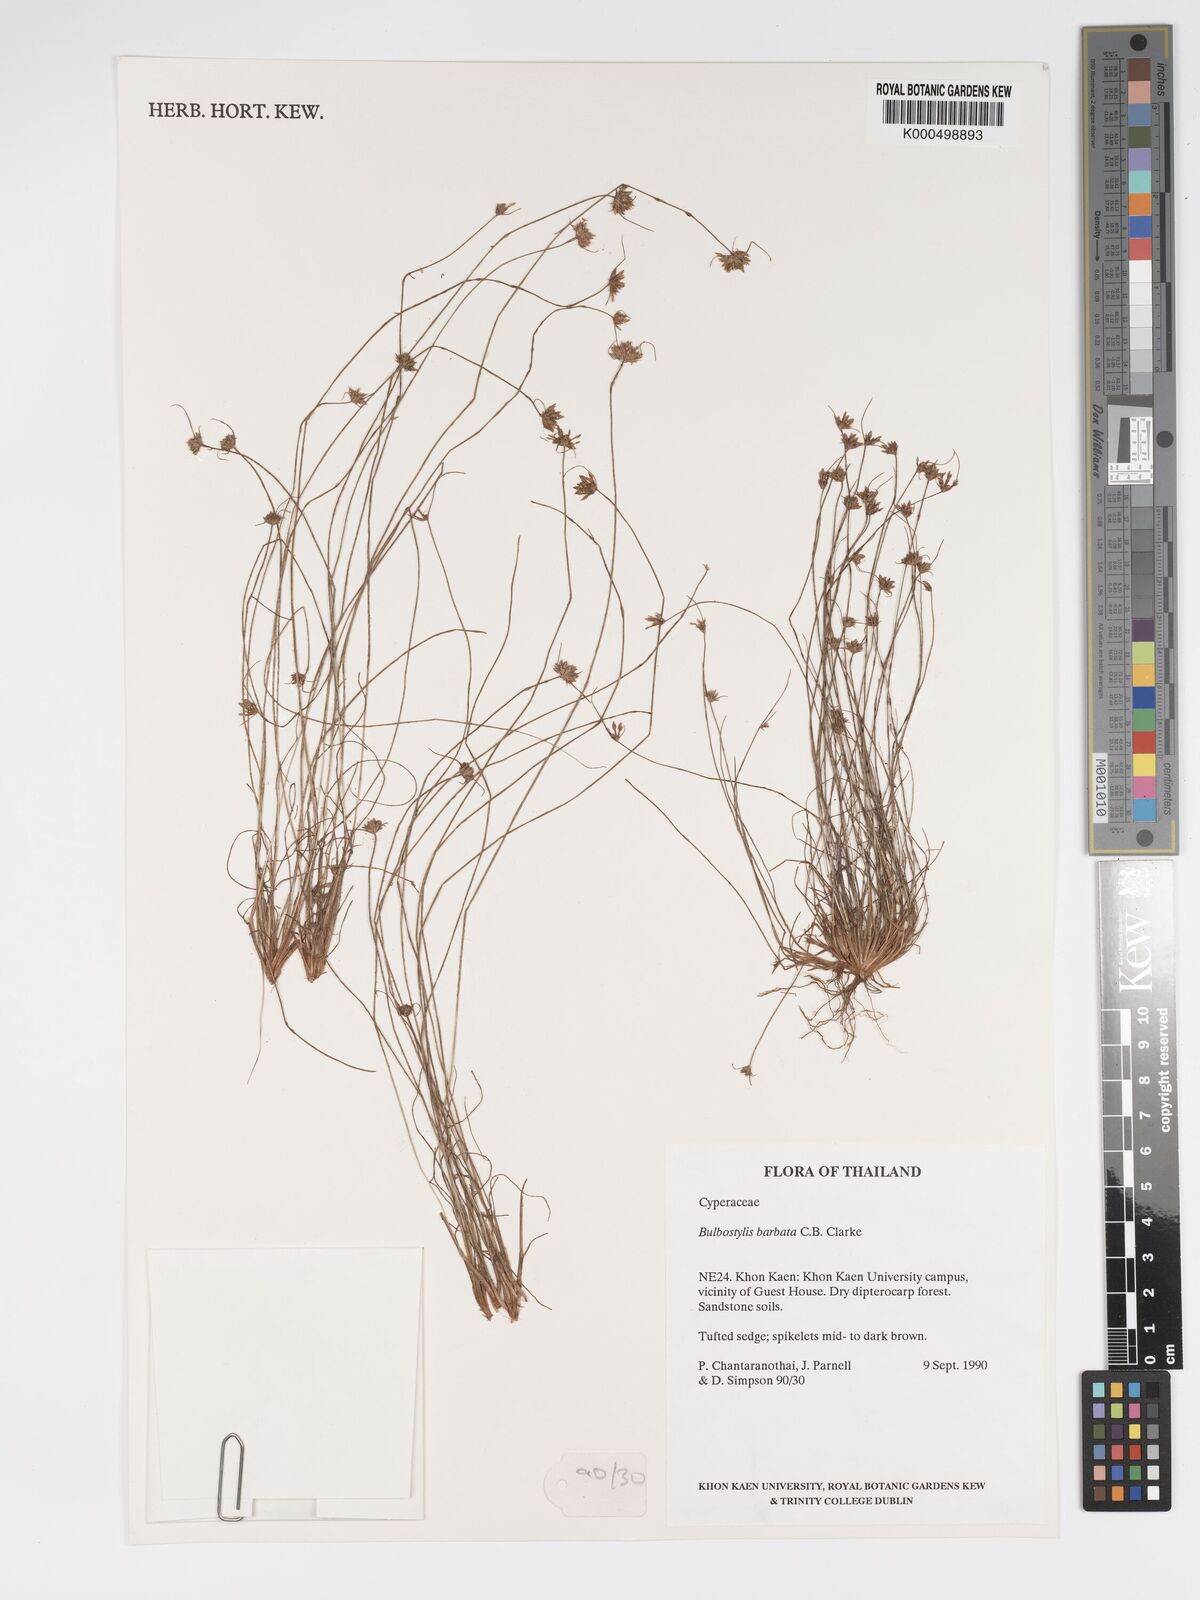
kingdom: Plantae
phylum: Tracheophyta
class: Liliopsida
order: Poales
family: Cyperaceae
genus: Bulbostylis
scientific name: Bulbostylis barbata
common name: Watergrass
